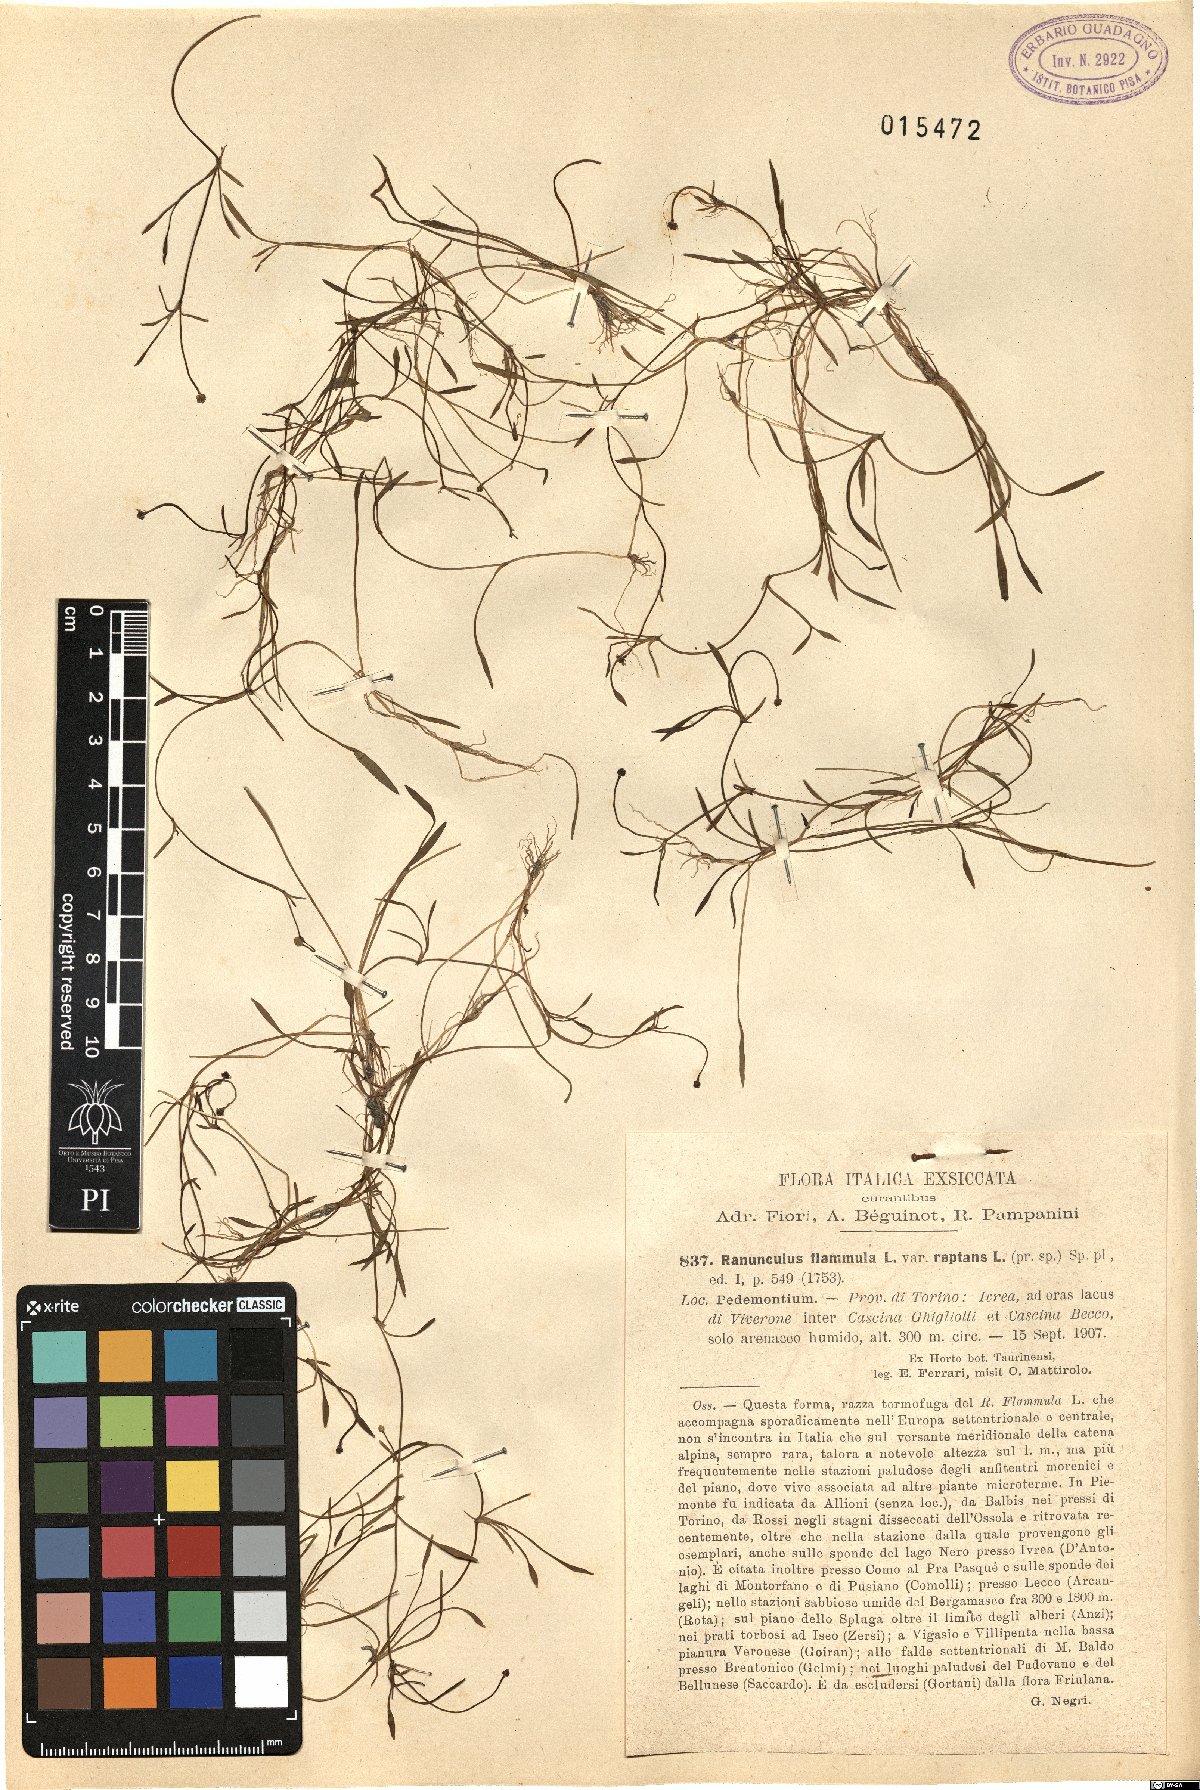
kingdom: Plantae
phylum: Tracheophyta
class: Magnoliopsida
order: Ranunculales
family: Ranunculaceae
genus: Ranunculus
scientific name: Ranunculus reptans
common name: Creeping spearwort
